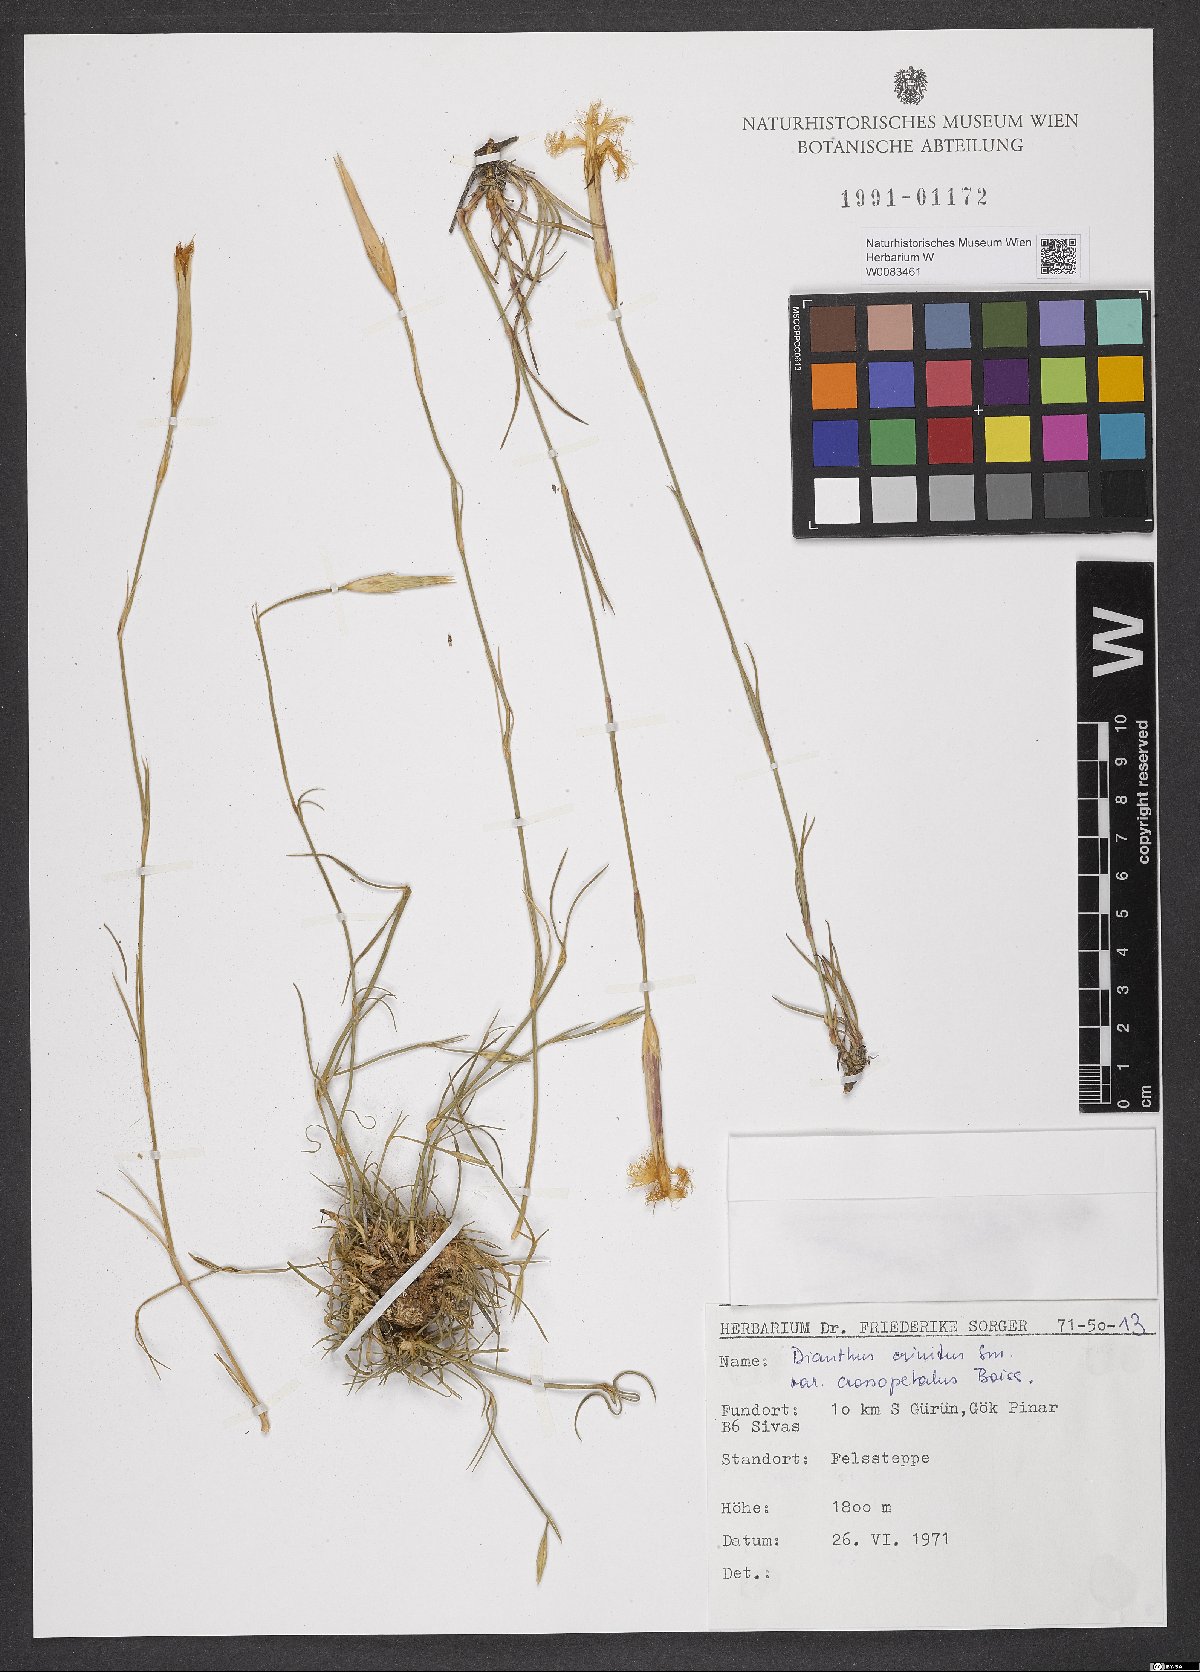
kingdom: Plantae
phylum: Tracheophyta
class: Magnoliopsida
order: Caryophyllales
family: Caryophyllaceae
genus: Dianthus
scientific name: Dianthus crossopetalus
